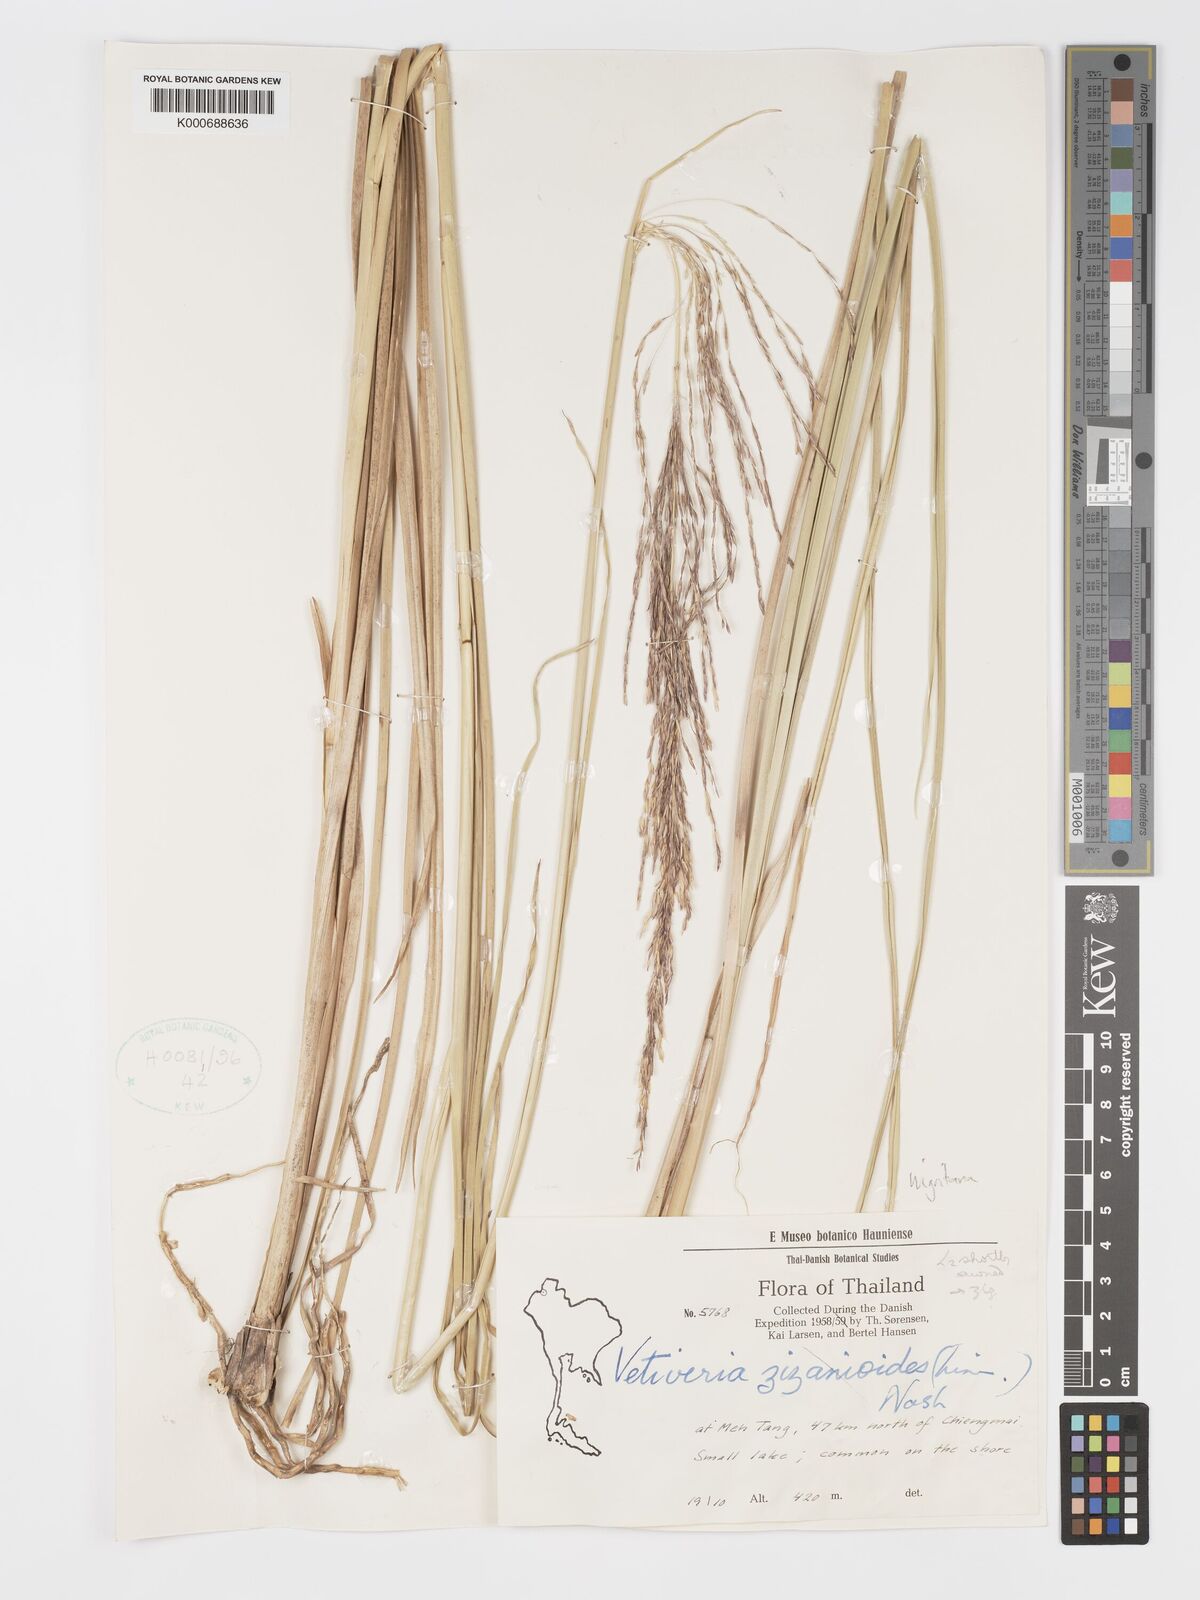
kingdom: Plantae
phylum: Tracheophyta
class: Liliopsida
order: Poales
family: Poaceae
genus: Chrysopogon
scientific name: Chrysopogon zizanioides
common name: False beardgrass
